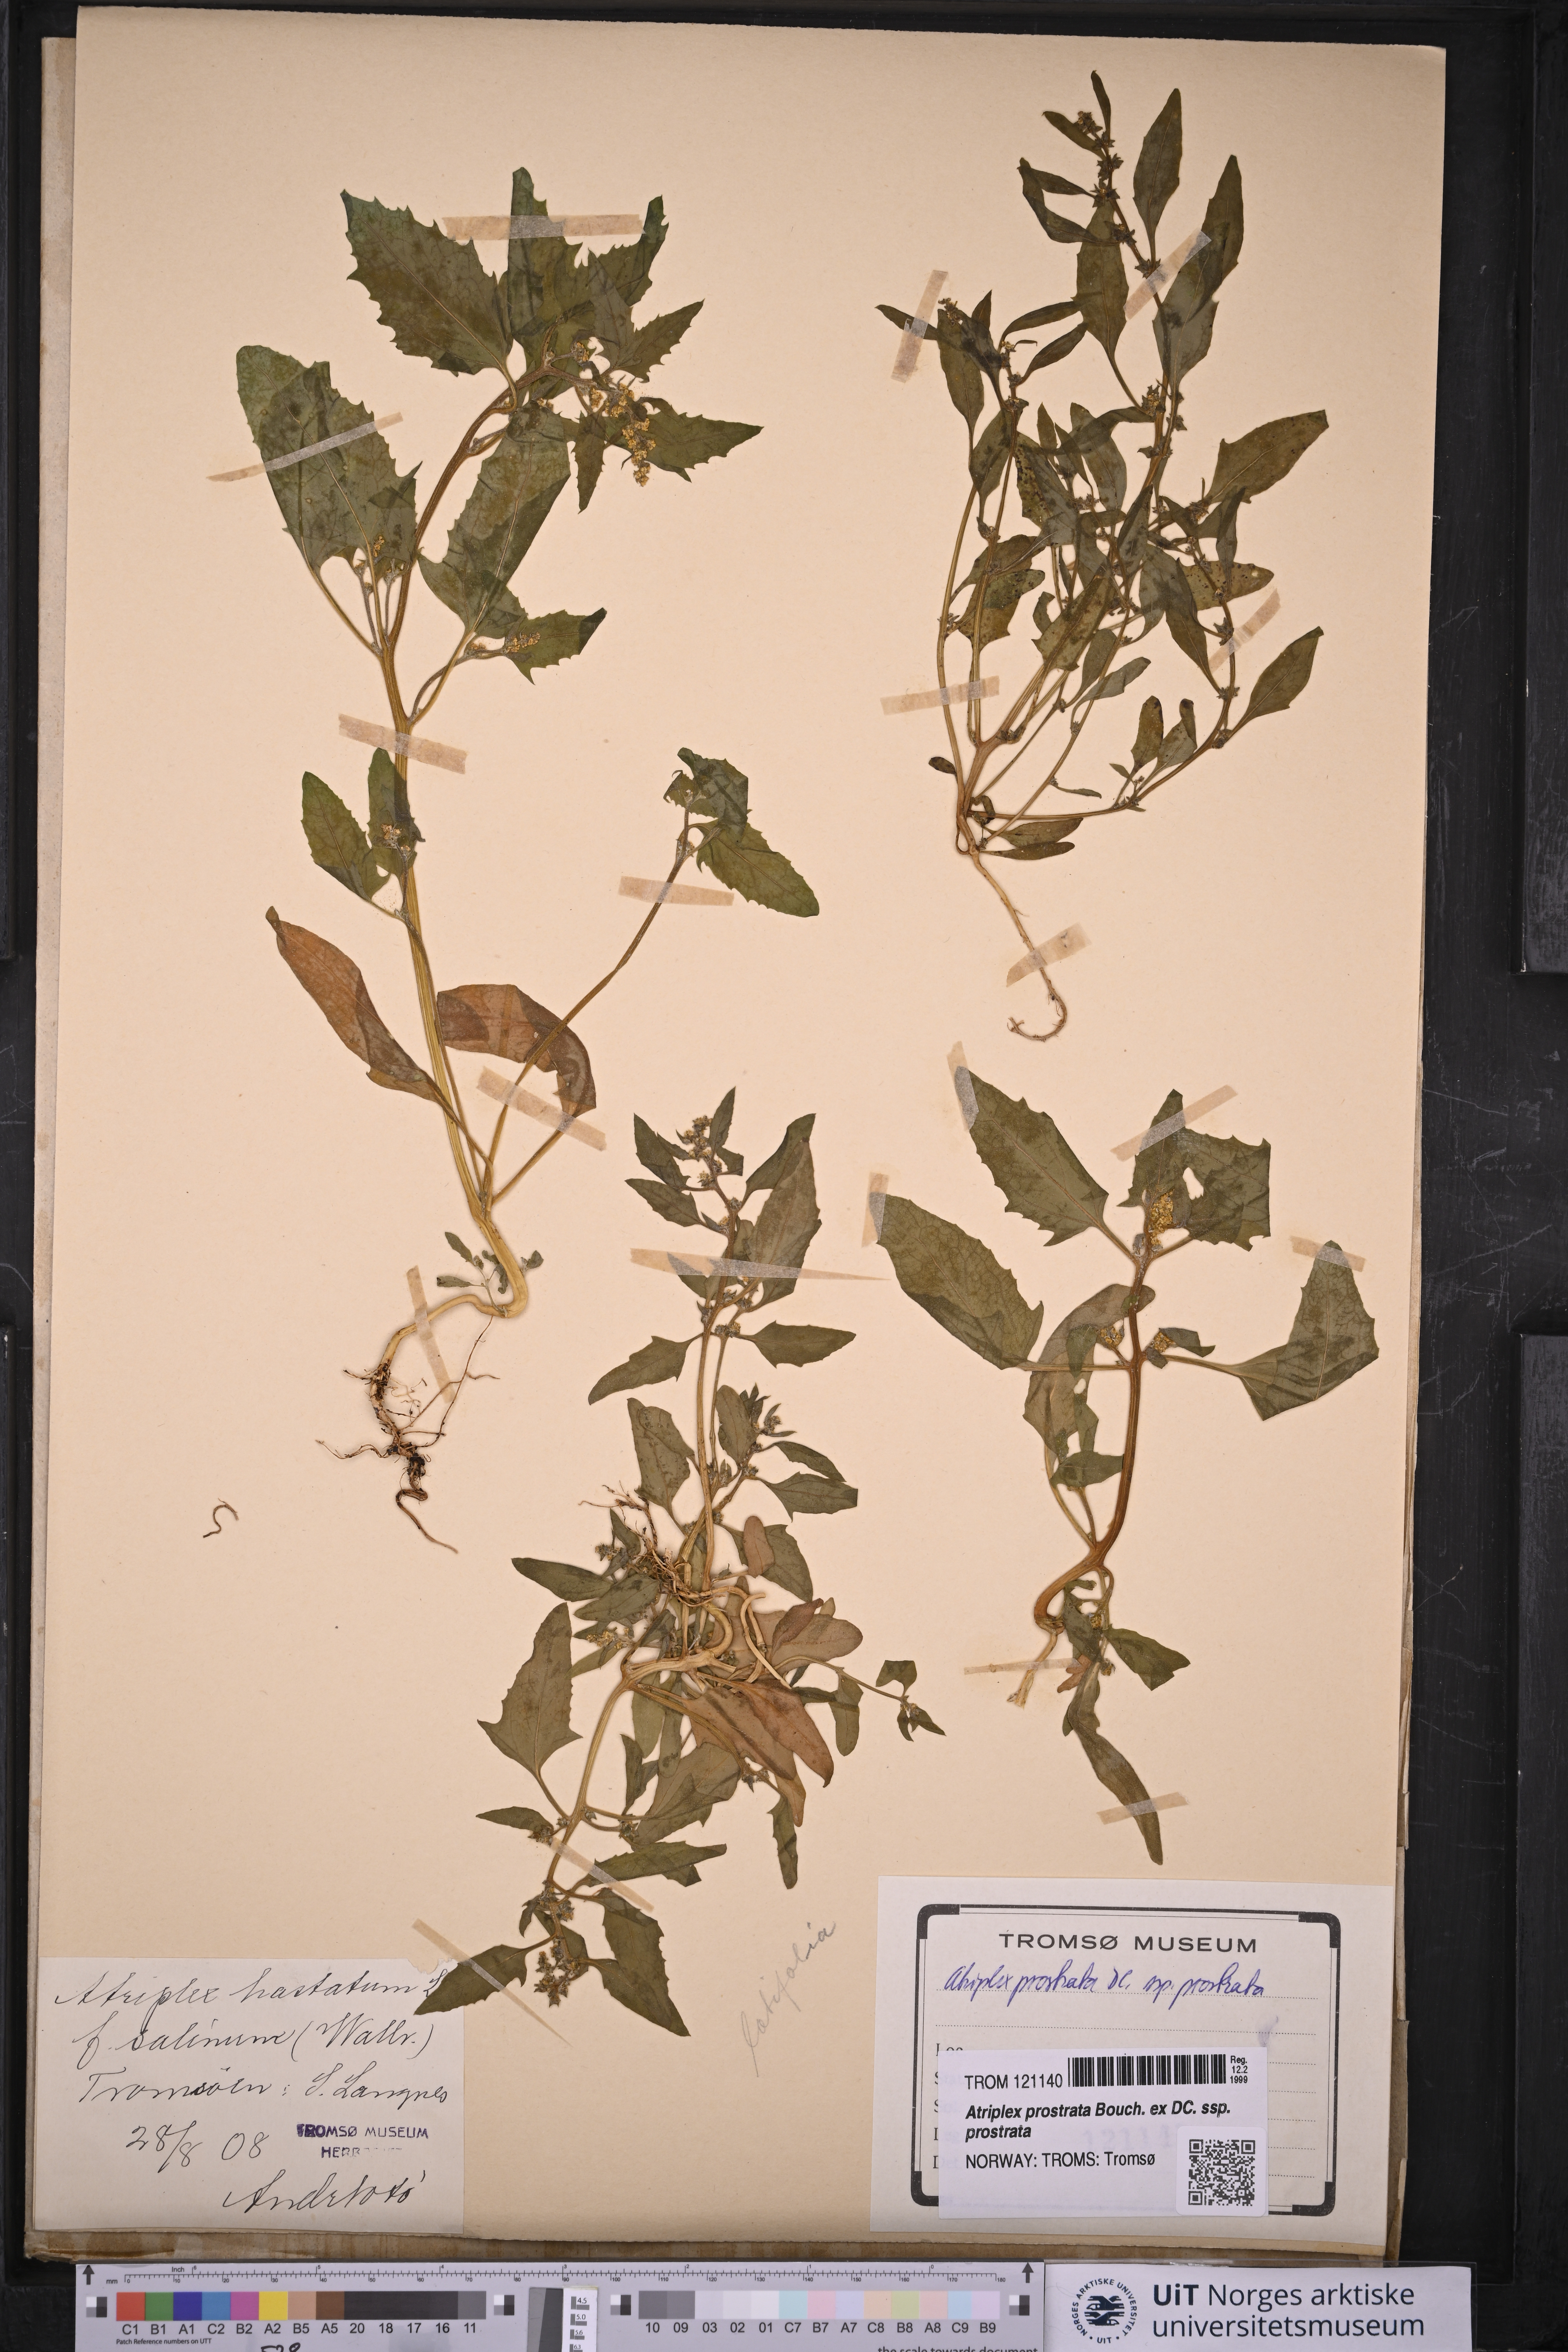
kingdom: Plantae
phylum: Tracheophyta
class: Magnoliopsida
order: Caryophyllales
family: Amaranthaceae
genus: Atriplex
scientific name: Atriplex prostrata
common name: Spear-leaved orache
